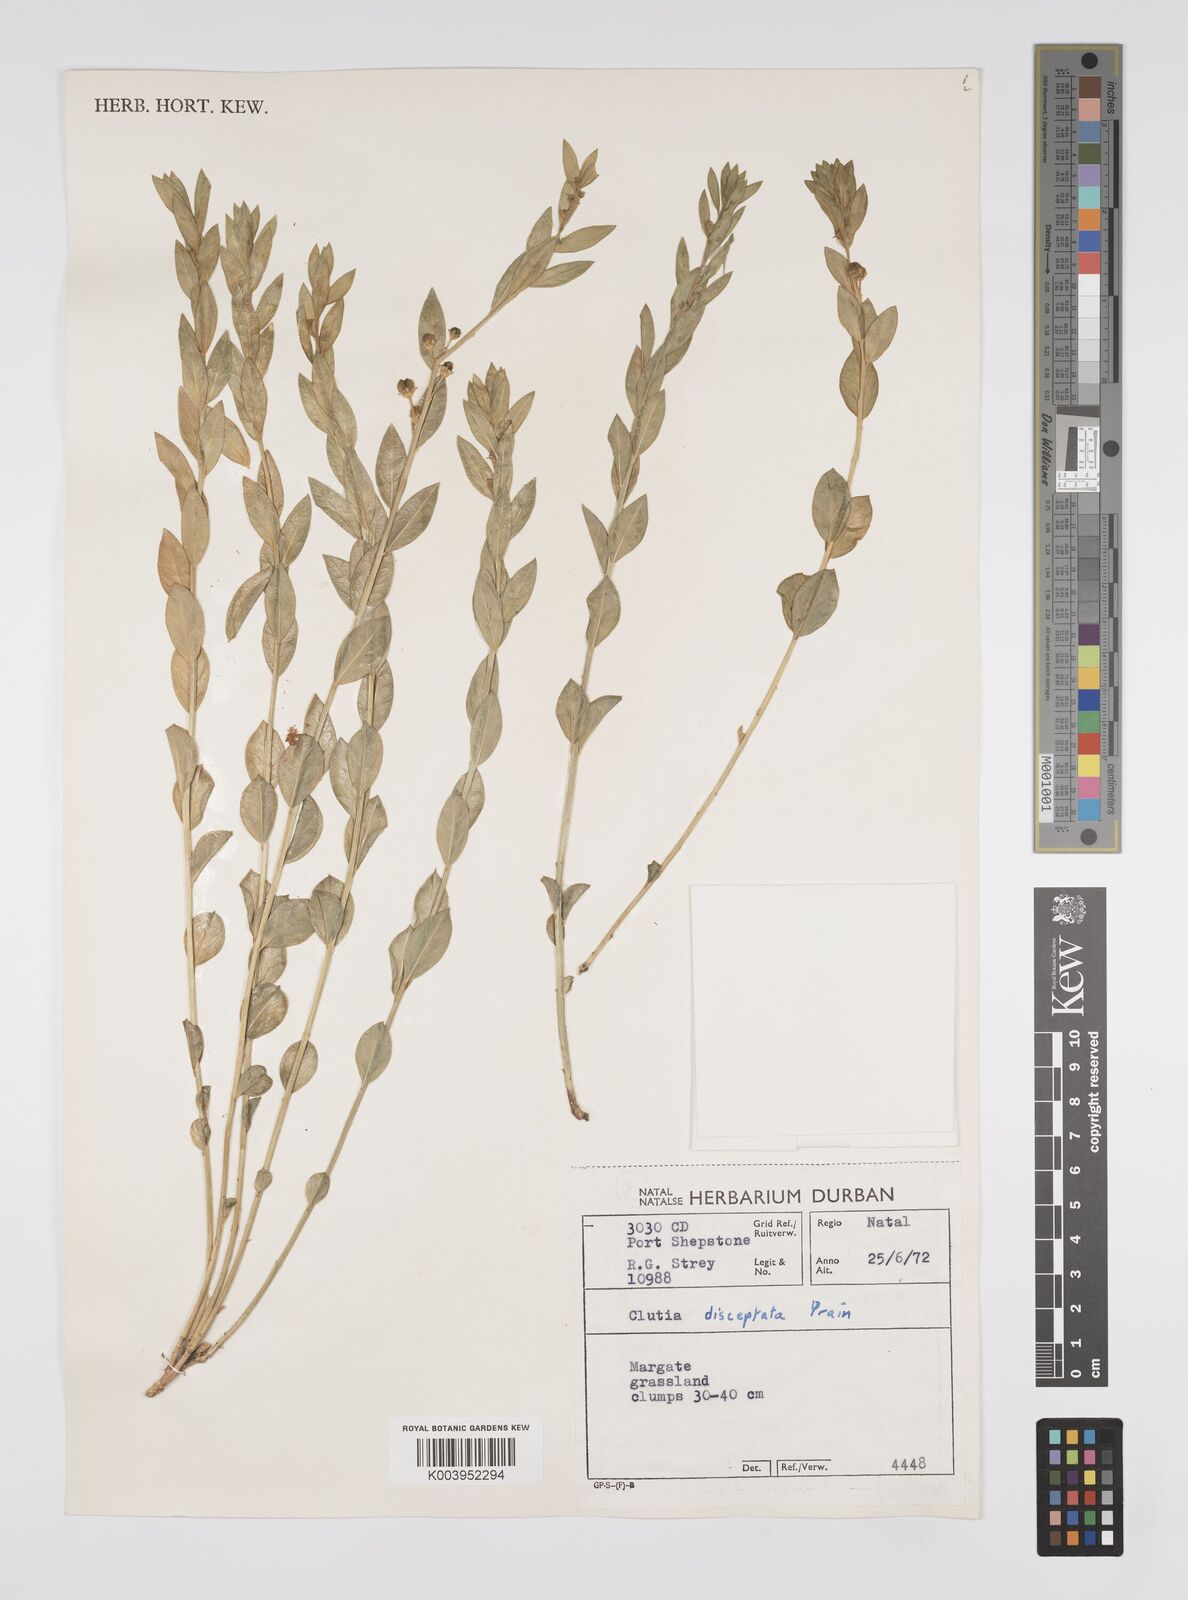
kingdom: Plantae
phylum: Tracheophyta
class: Magnoliopsida
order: Malpighiales
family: Peraceae
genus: Clutia
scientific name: Clutia disceptata
